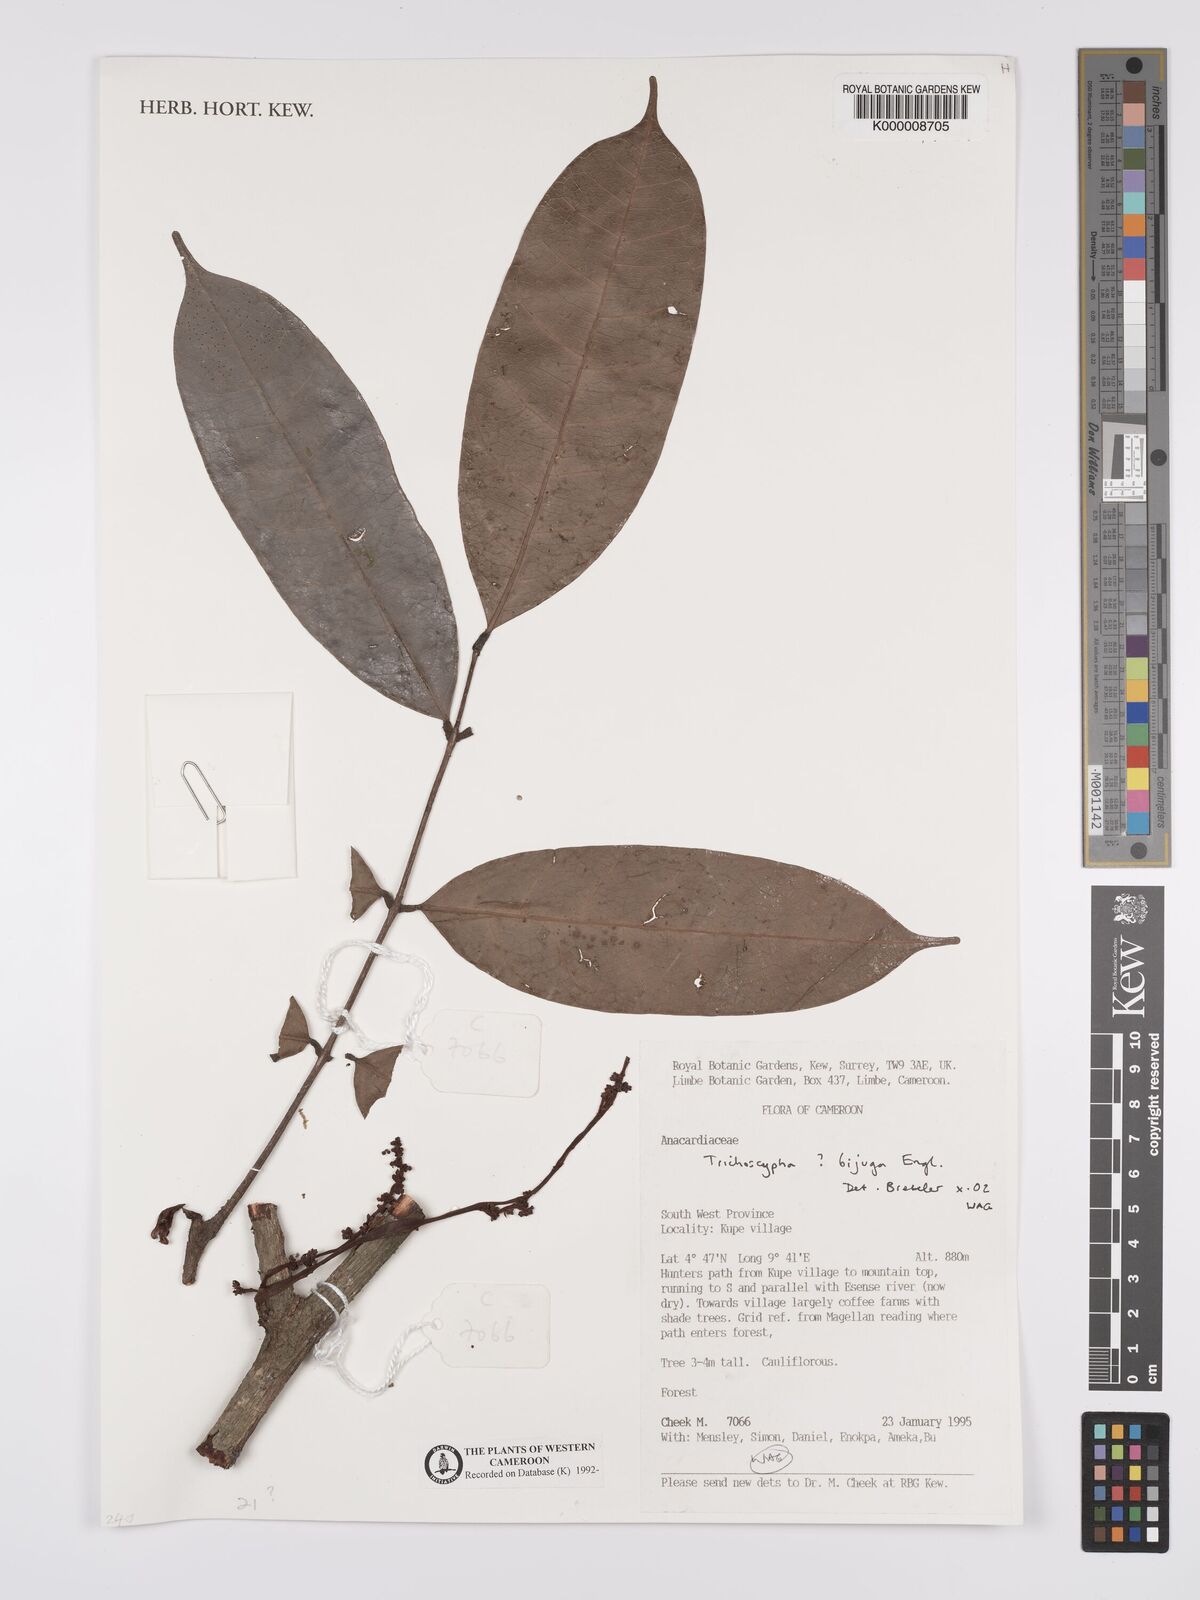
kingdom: Plantae
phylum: Tracheophyta
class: Magnoliopsida
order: Sapindales
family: Anacardiaceae
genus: Trichoscypha
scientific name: Trichoscypha bijuga
